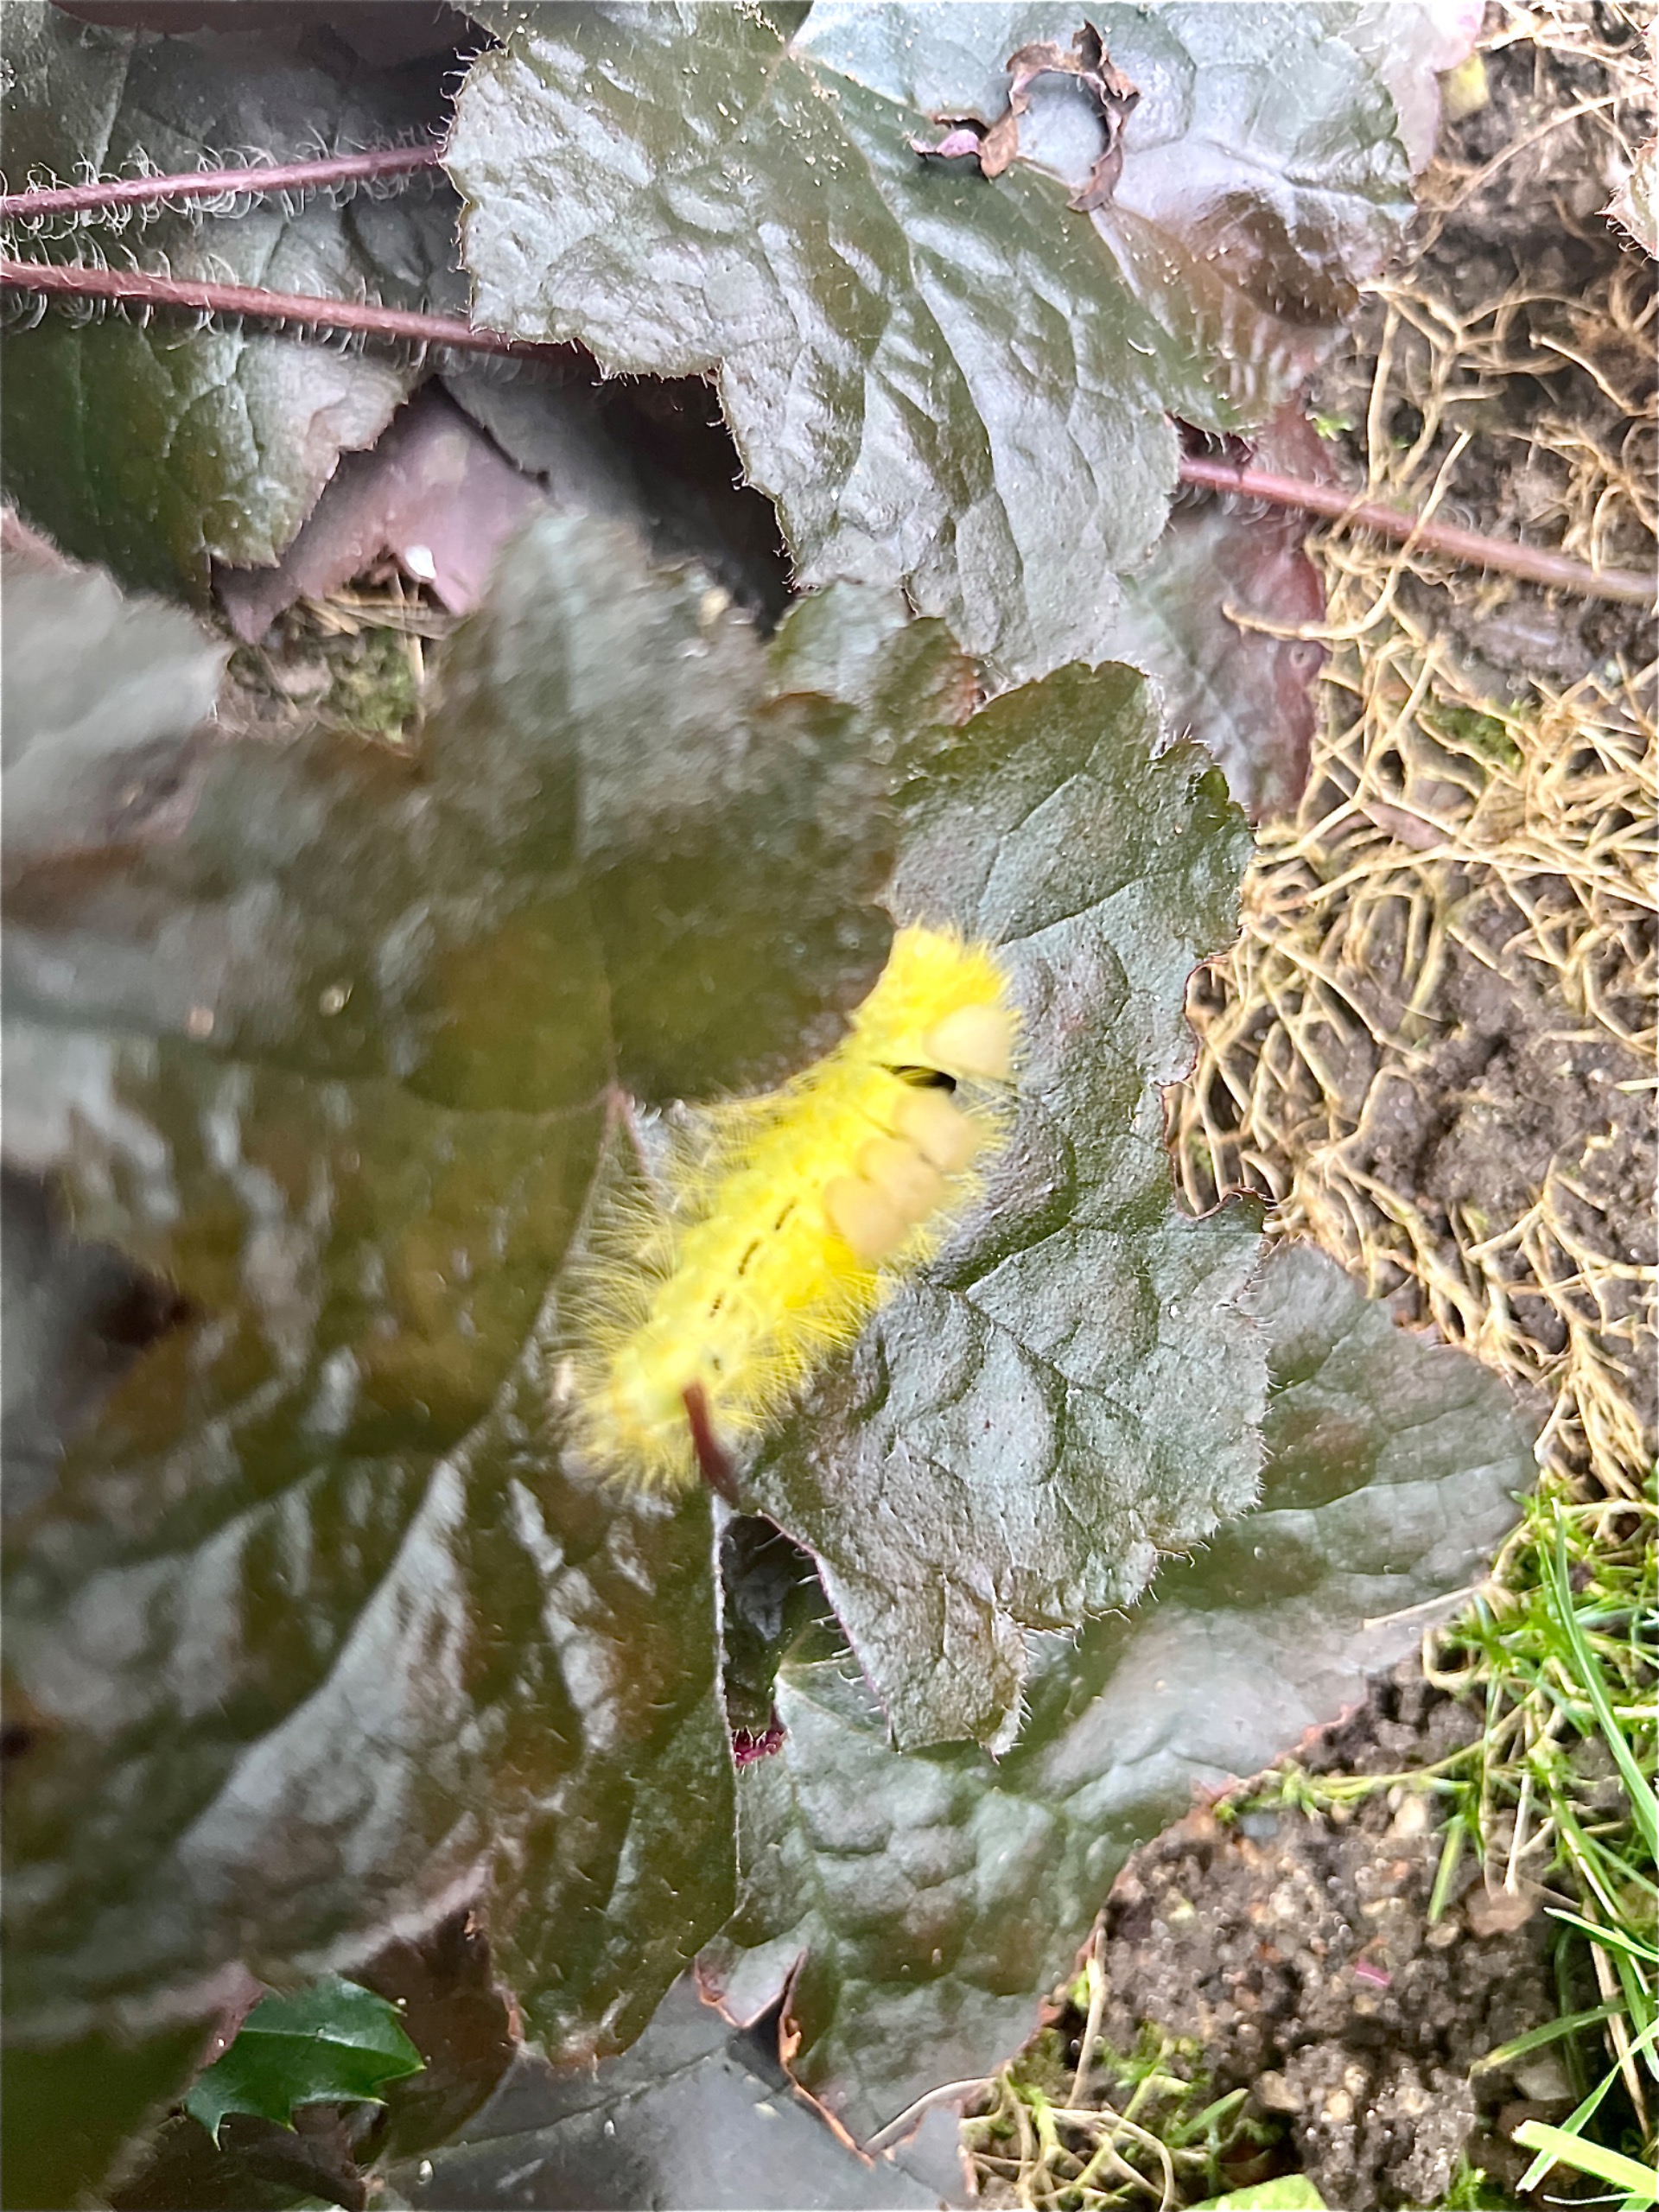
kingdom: Animalia
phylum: Arthropoda
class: Insecta
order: Lepidoptera
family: Erebidae
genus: Calliteara
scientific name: Calliteara pudibunda
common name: Bøgenonne
